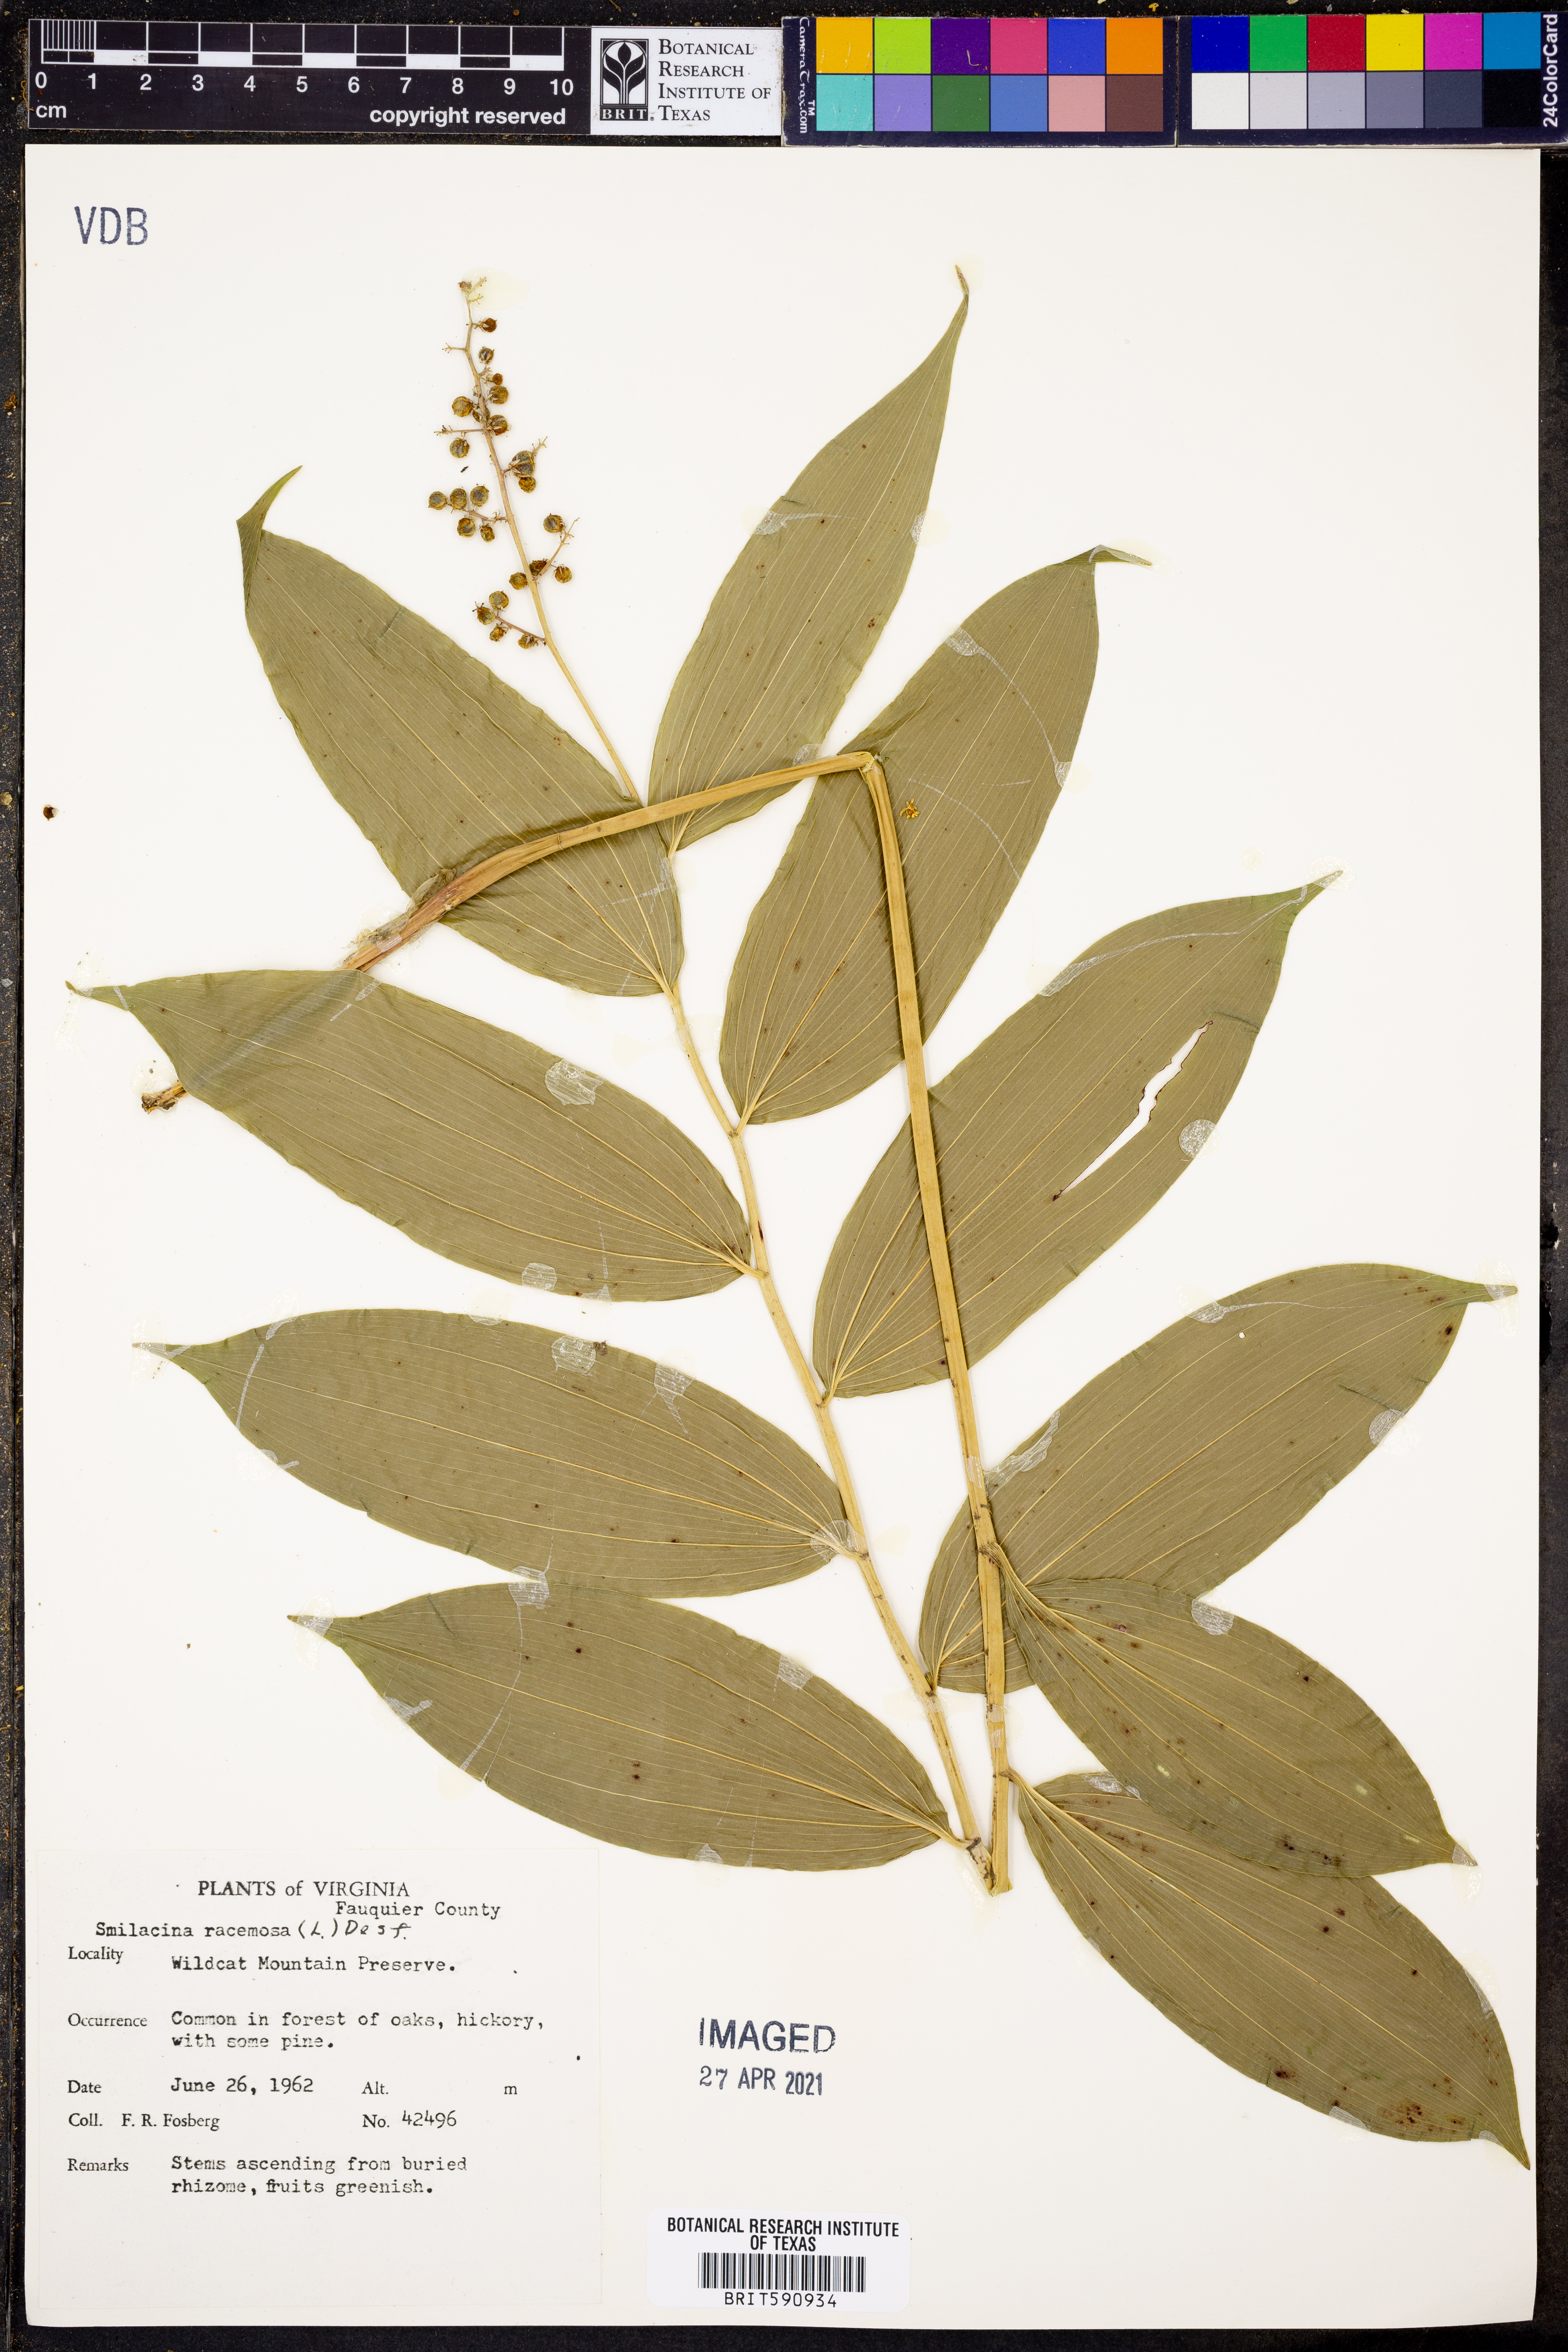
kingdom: Plantae
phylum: Tracheophyta
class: Liliopsida
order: Asparagales
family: Asparagaceae
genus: Maianthemum
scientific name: Maianthemum racemosum
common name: False spikenard
